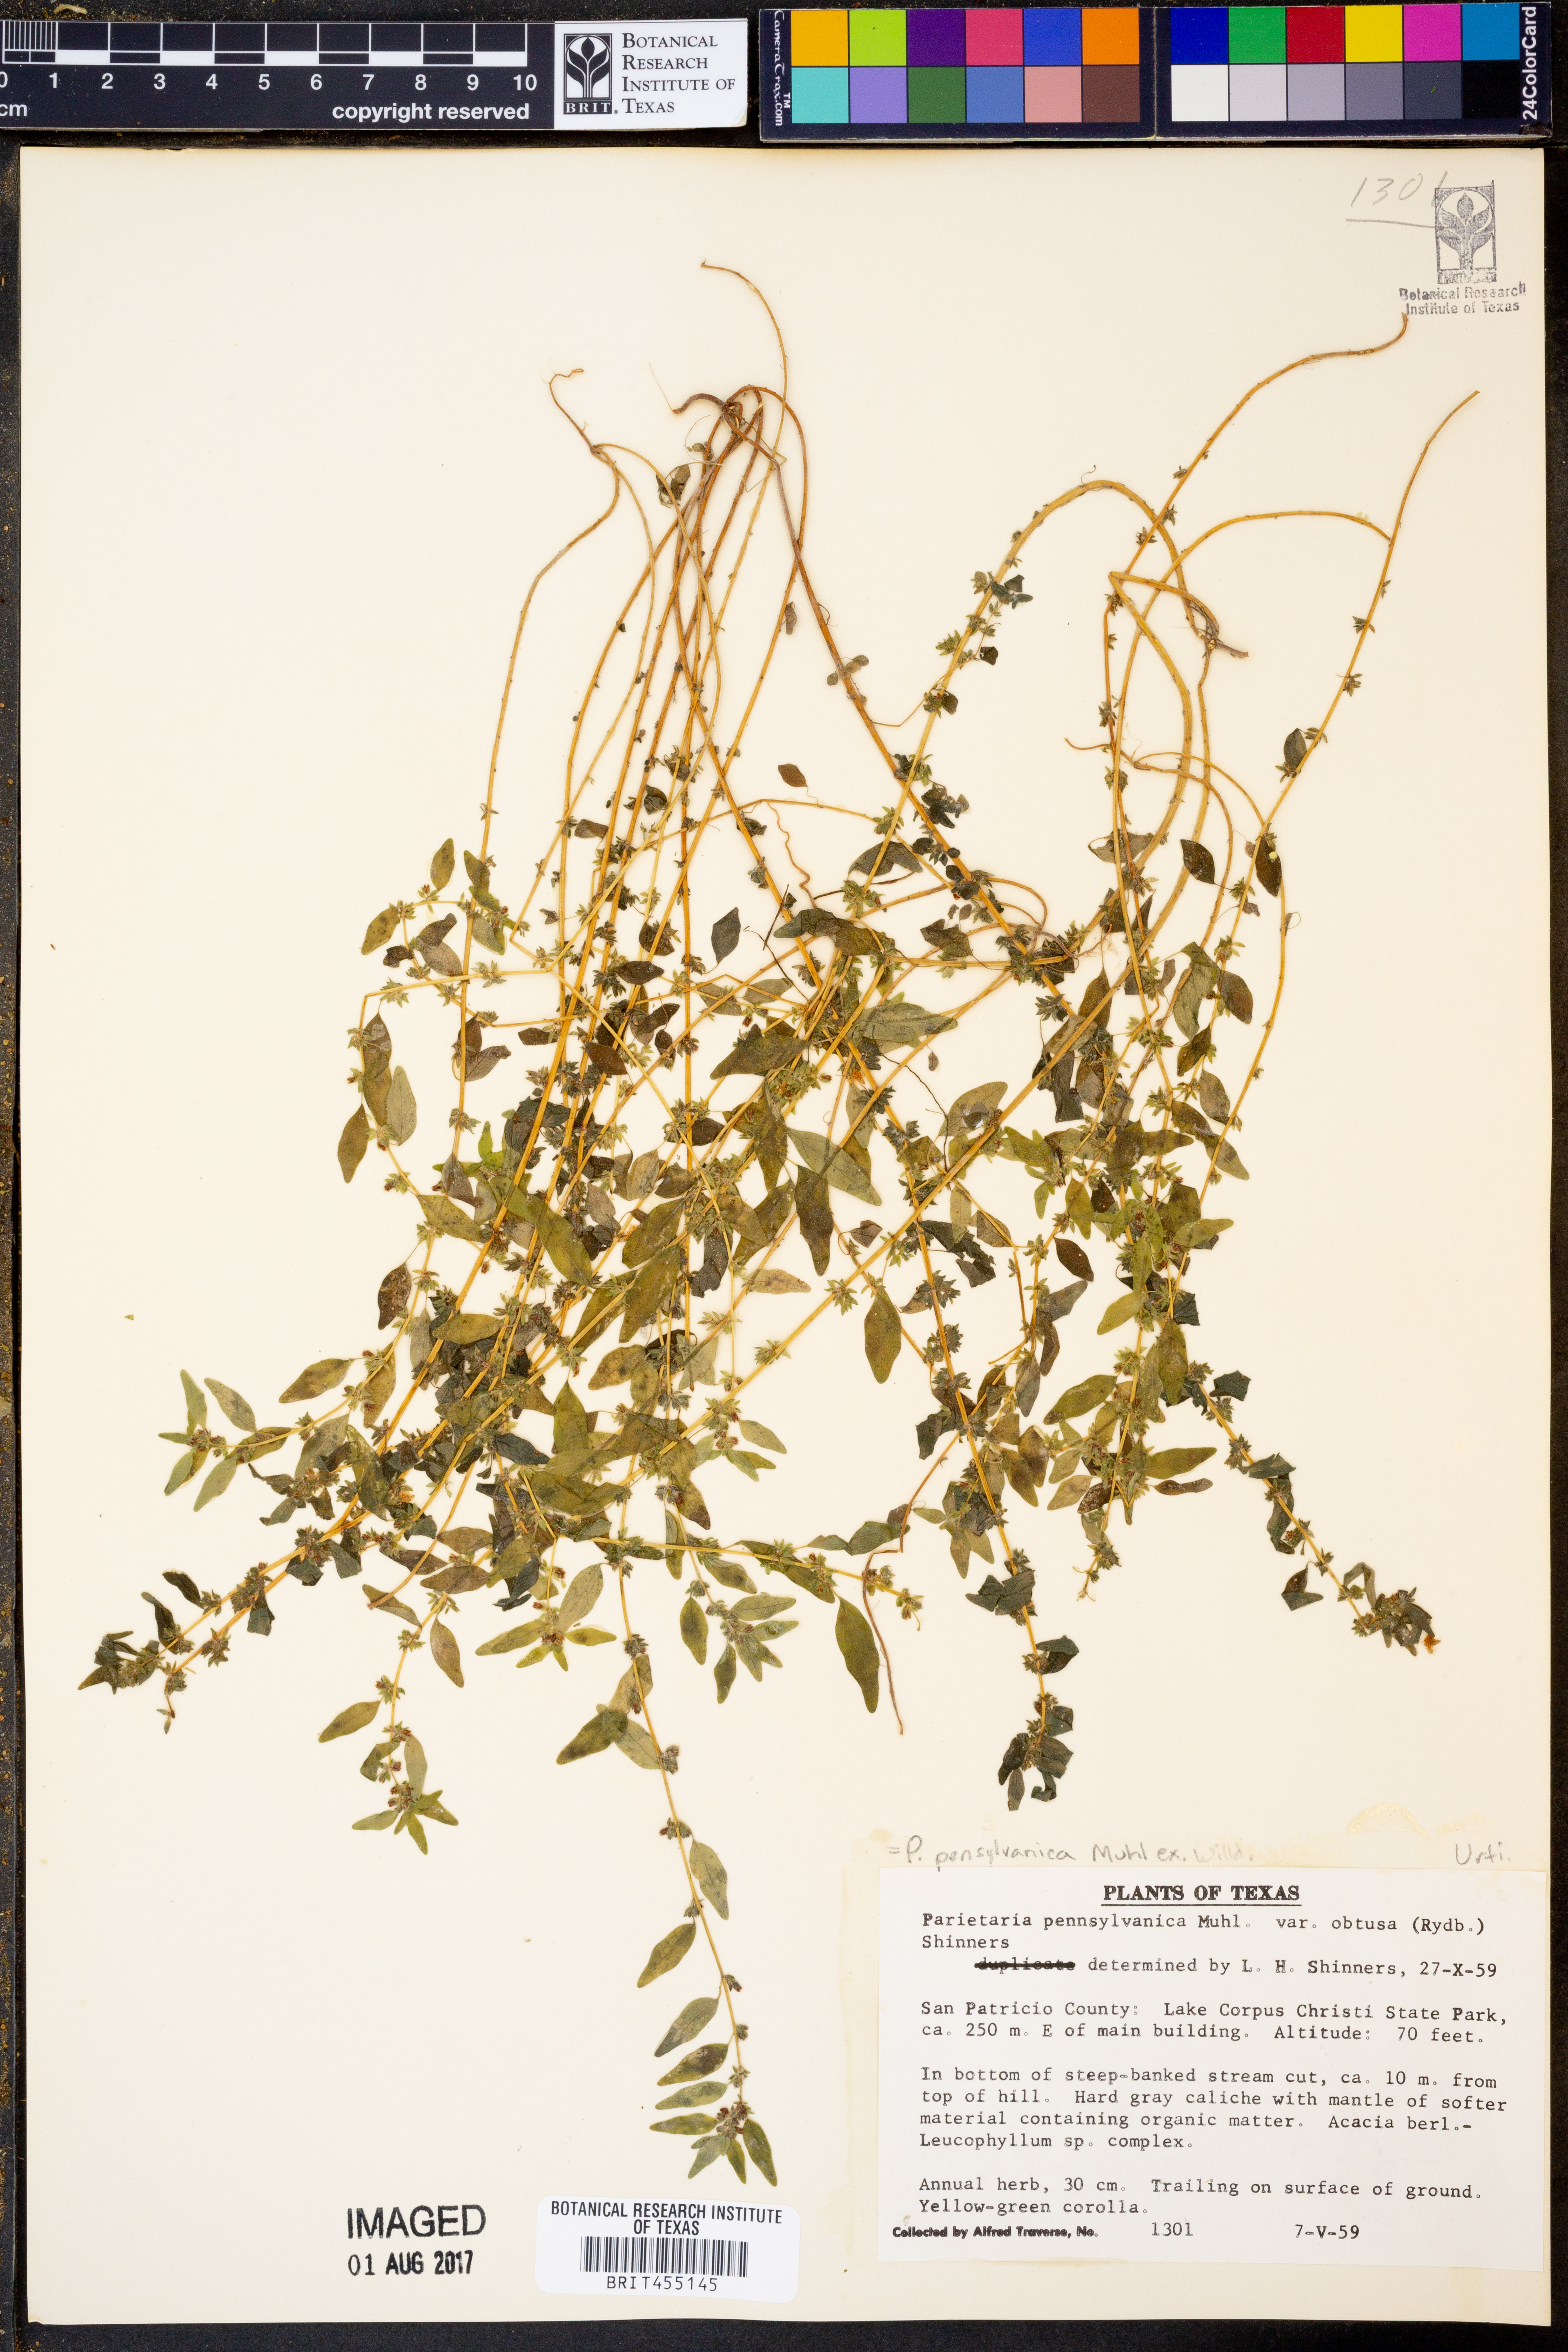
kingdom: Plantae
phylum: Tracheophyta
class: Magnoliopsida
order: Rosales
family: Urticaceae
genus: Parietaria
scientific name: Parietaria pensylvanica
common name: Pennsylvania pellitory
